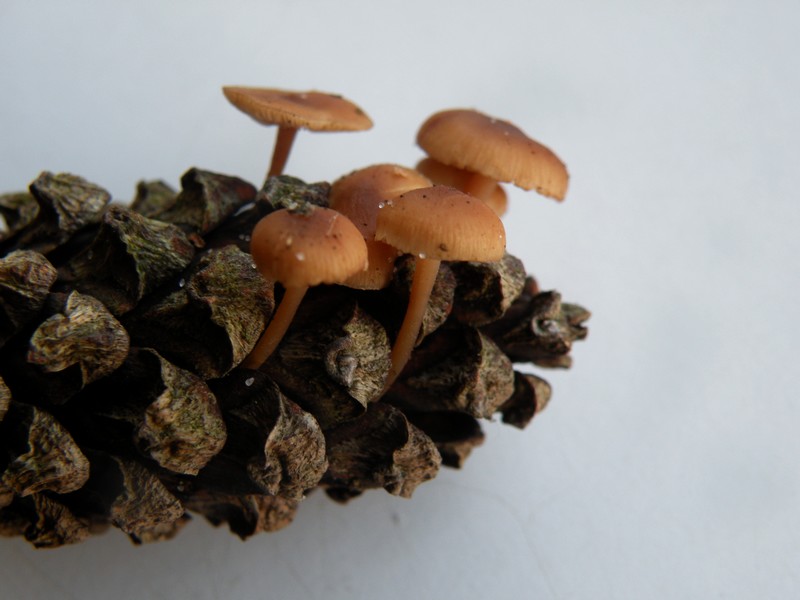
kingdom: Fungi
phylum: Basidiomycota
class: Agaricomycetes
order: Agaricales
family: Physalacriaceae
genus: Strobilurus
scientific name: Strobilurus stephanocystis
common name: fyrre-koglehat
